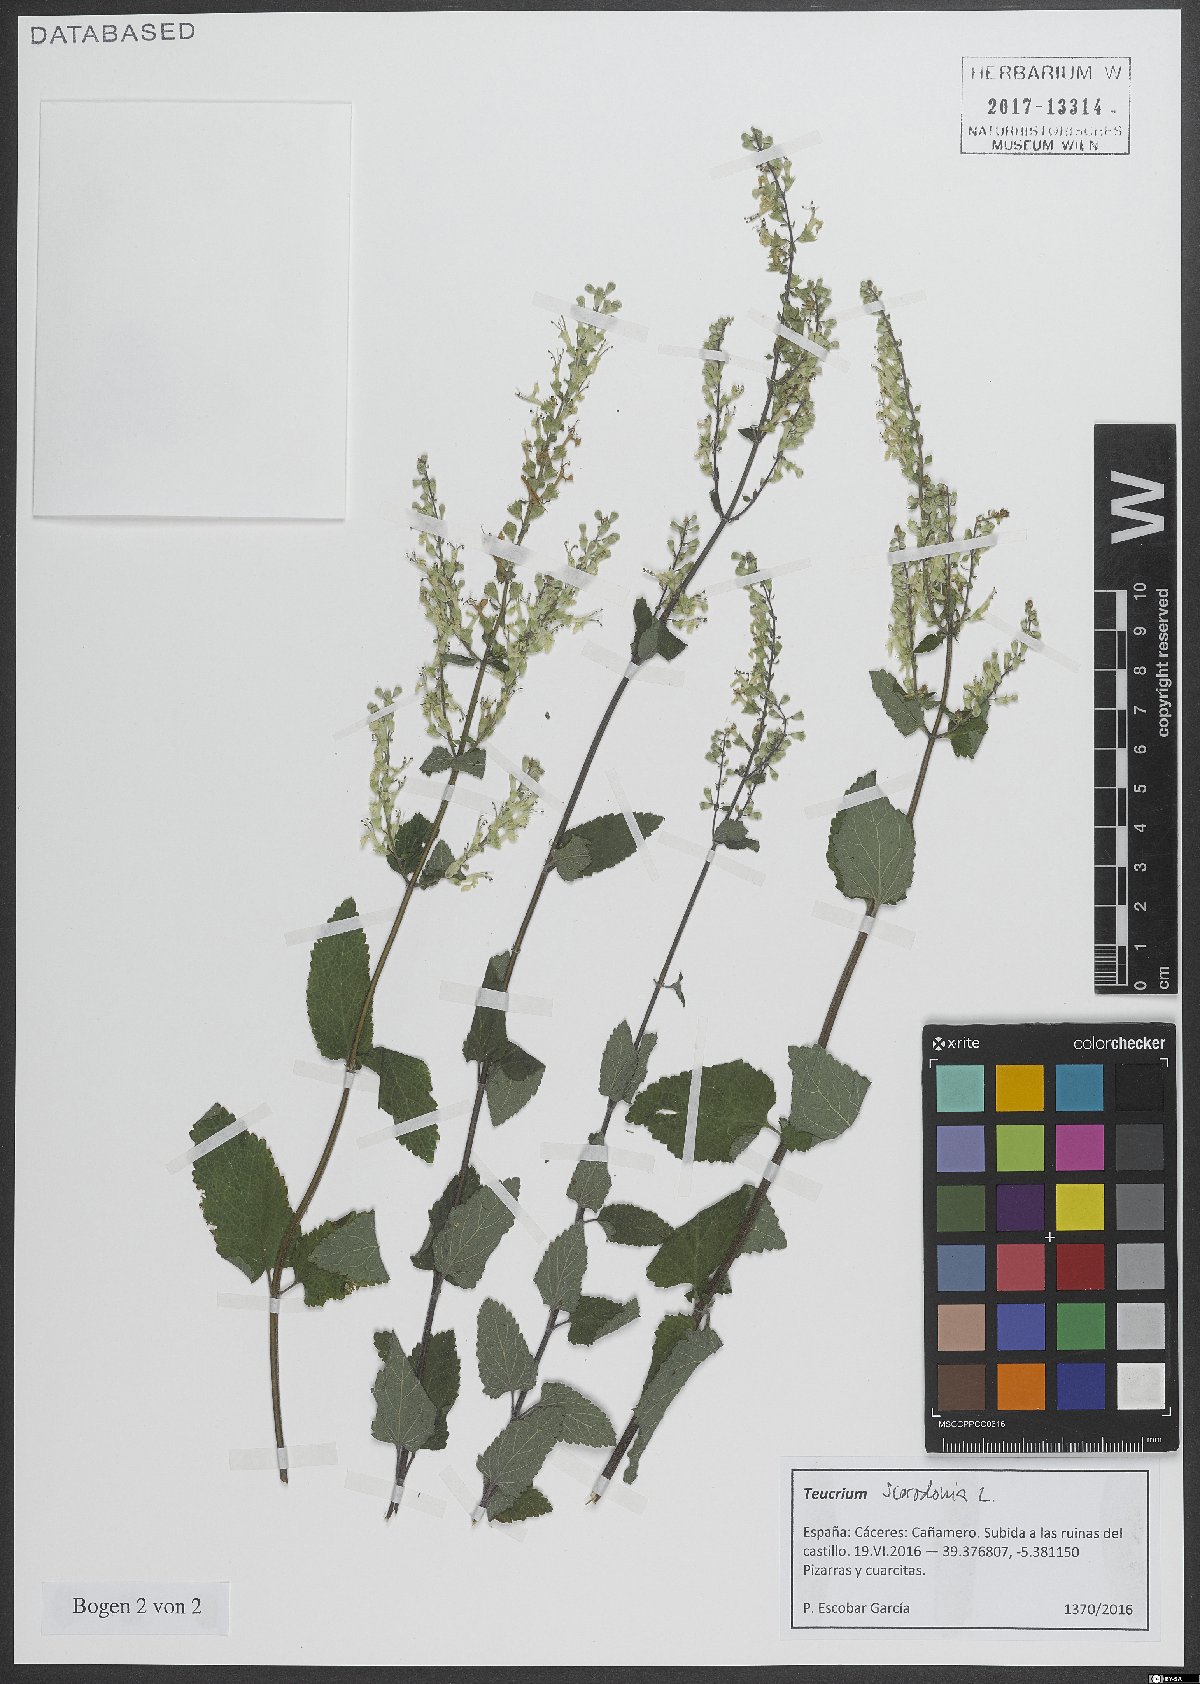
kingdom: Plantae
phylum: Tracheophyta
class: Magnoliopsida
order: Lamiales
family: Lamiaceae
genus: Teucrium
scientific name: Teucrium scorodonia
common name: Woodland germander
